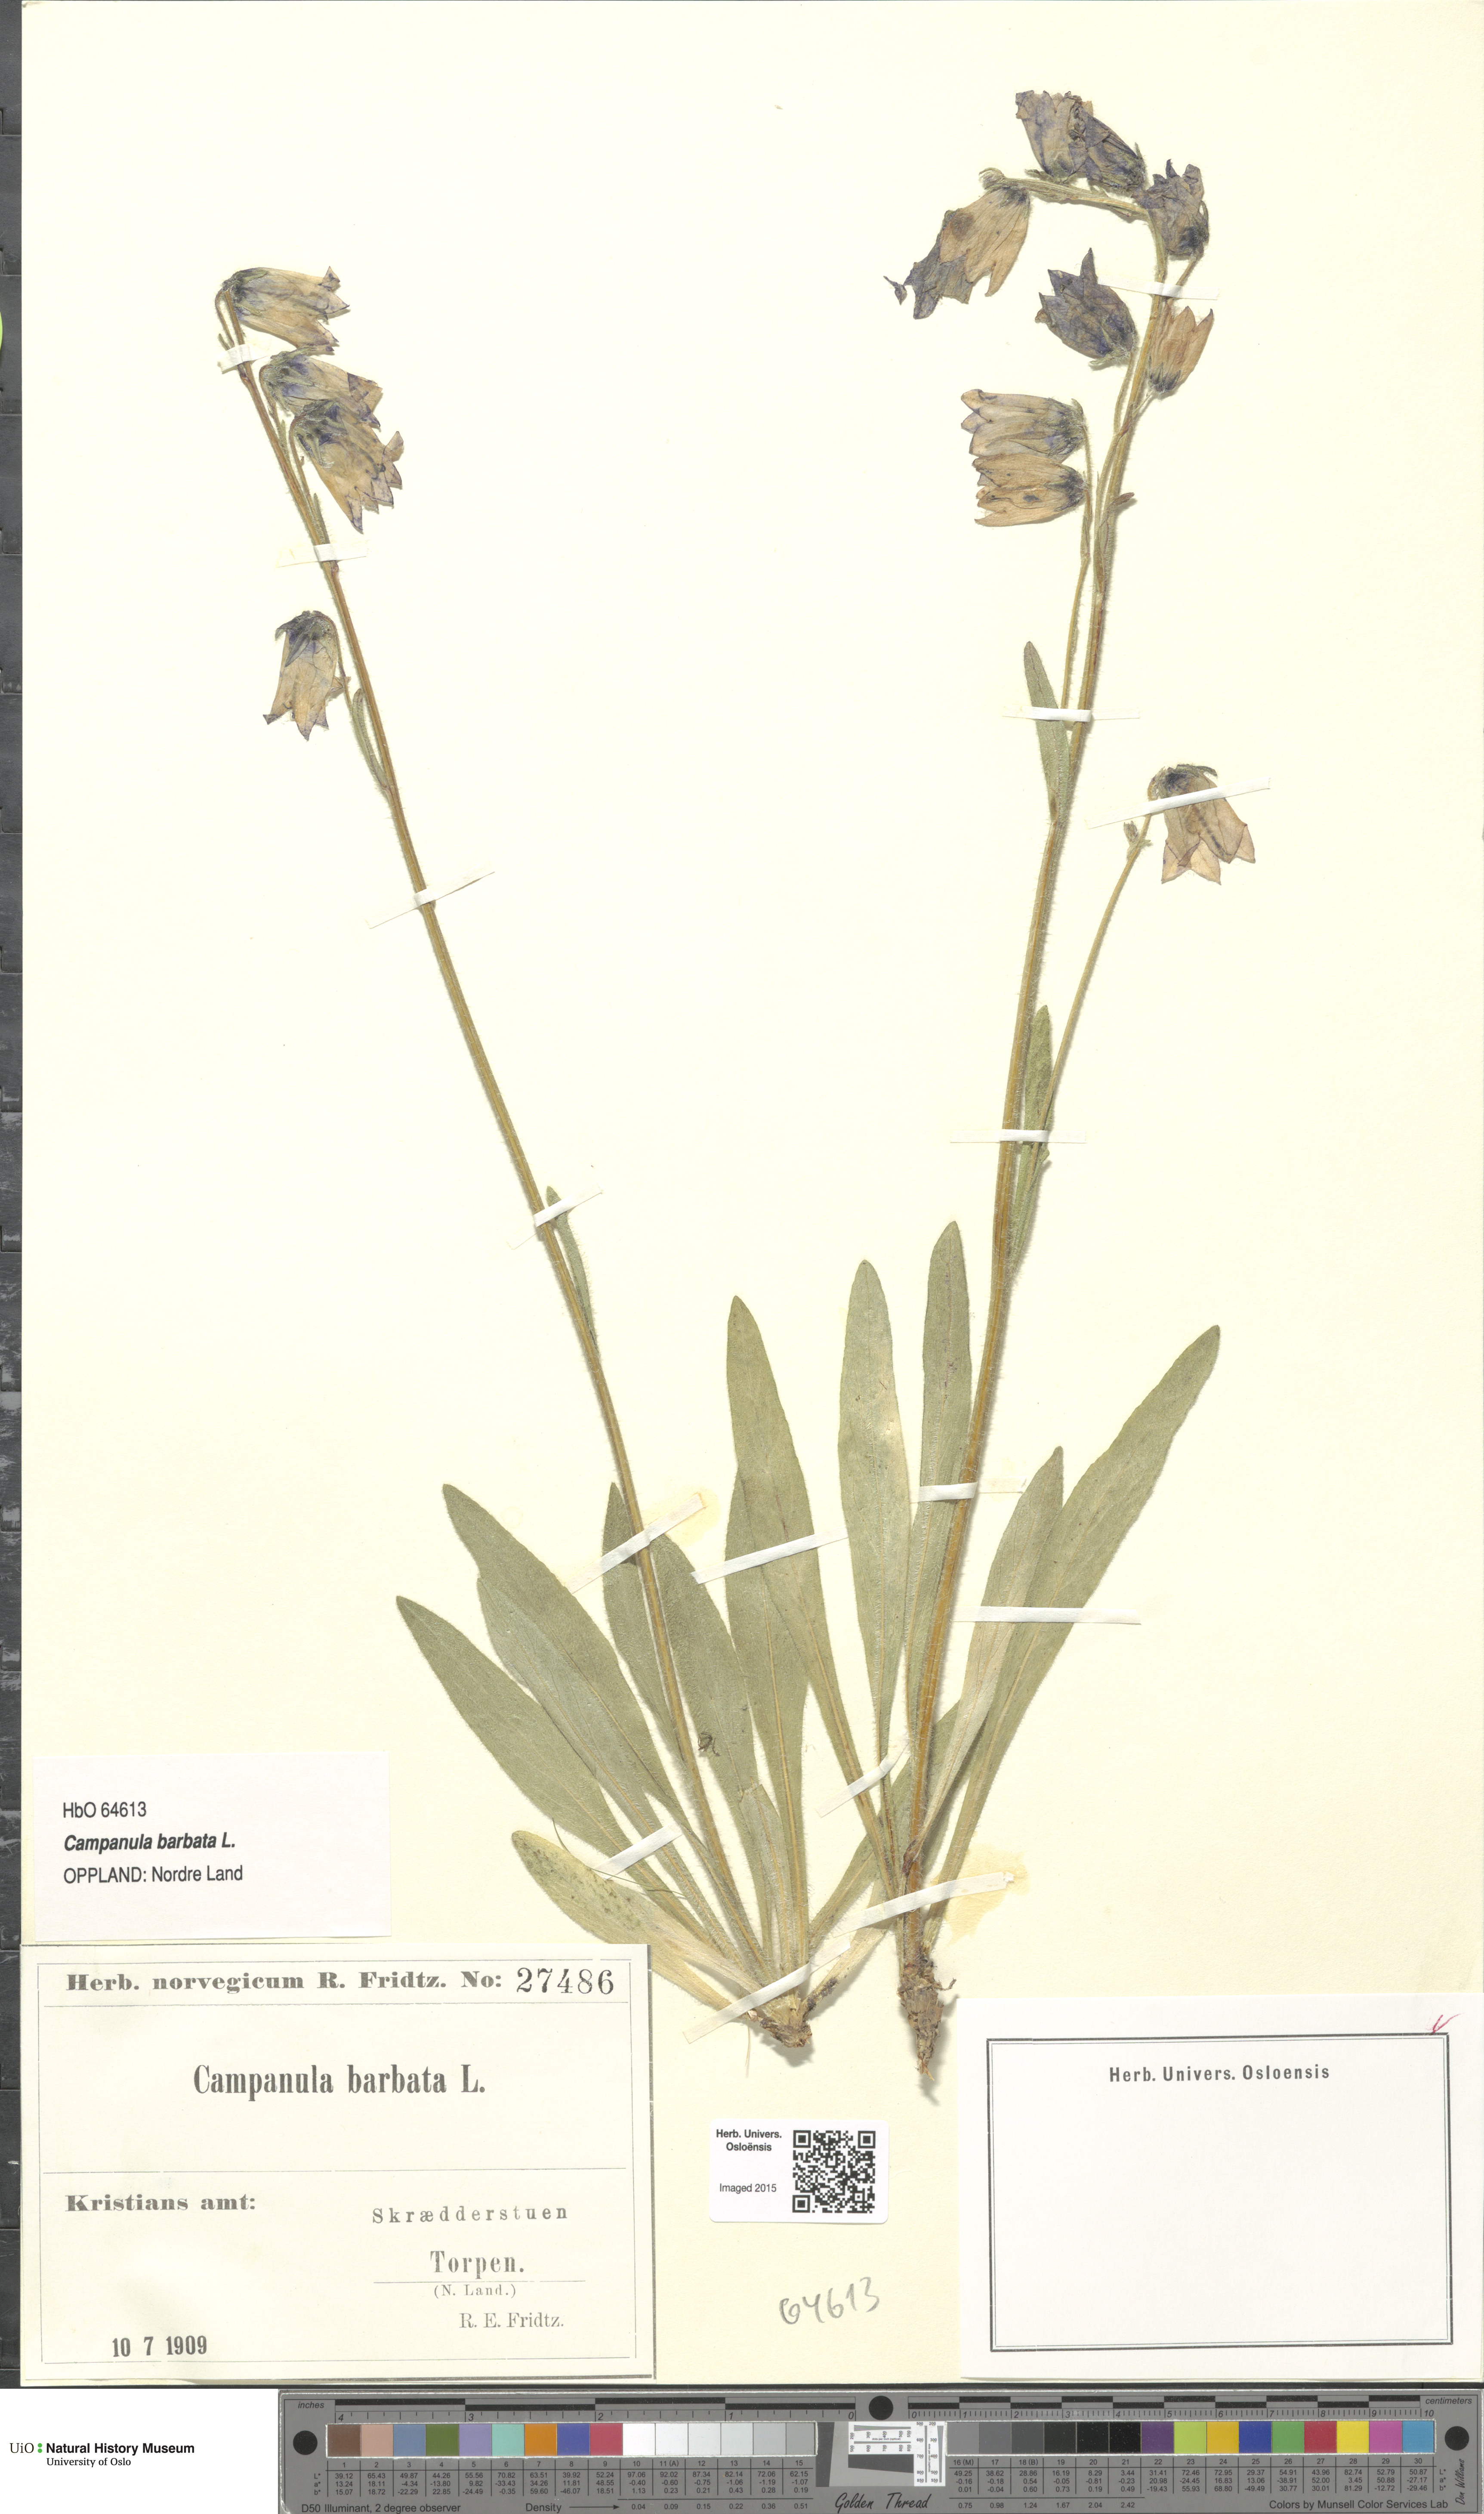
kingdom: Plantae
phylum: Tracheophyta
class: Magnoliopsida
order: Asterales
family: Campanulaceae
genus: Campanula
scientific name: Campanula barbata
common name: Bearded bellflower
